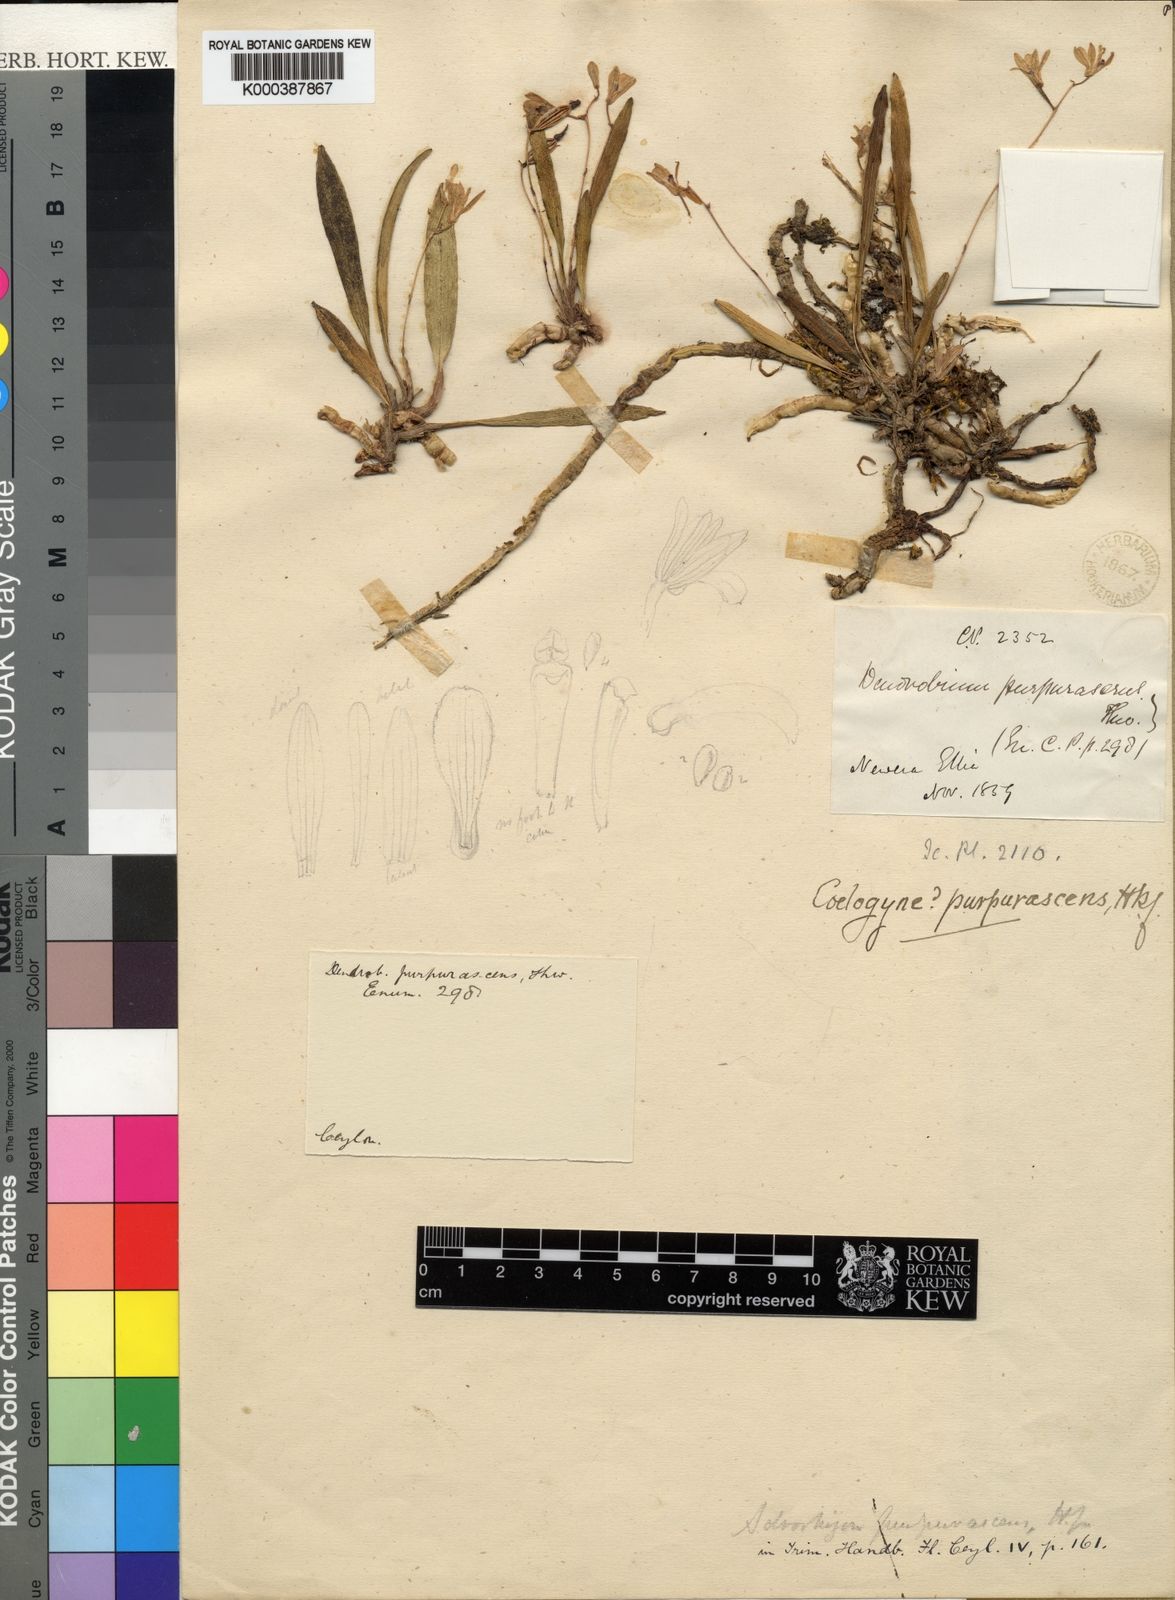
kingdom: Plantae
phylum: Tracheophyta
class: Liliopsida
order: Asparagales
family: Orchidaceae
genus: Sirhookera
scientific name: Sirhookera
